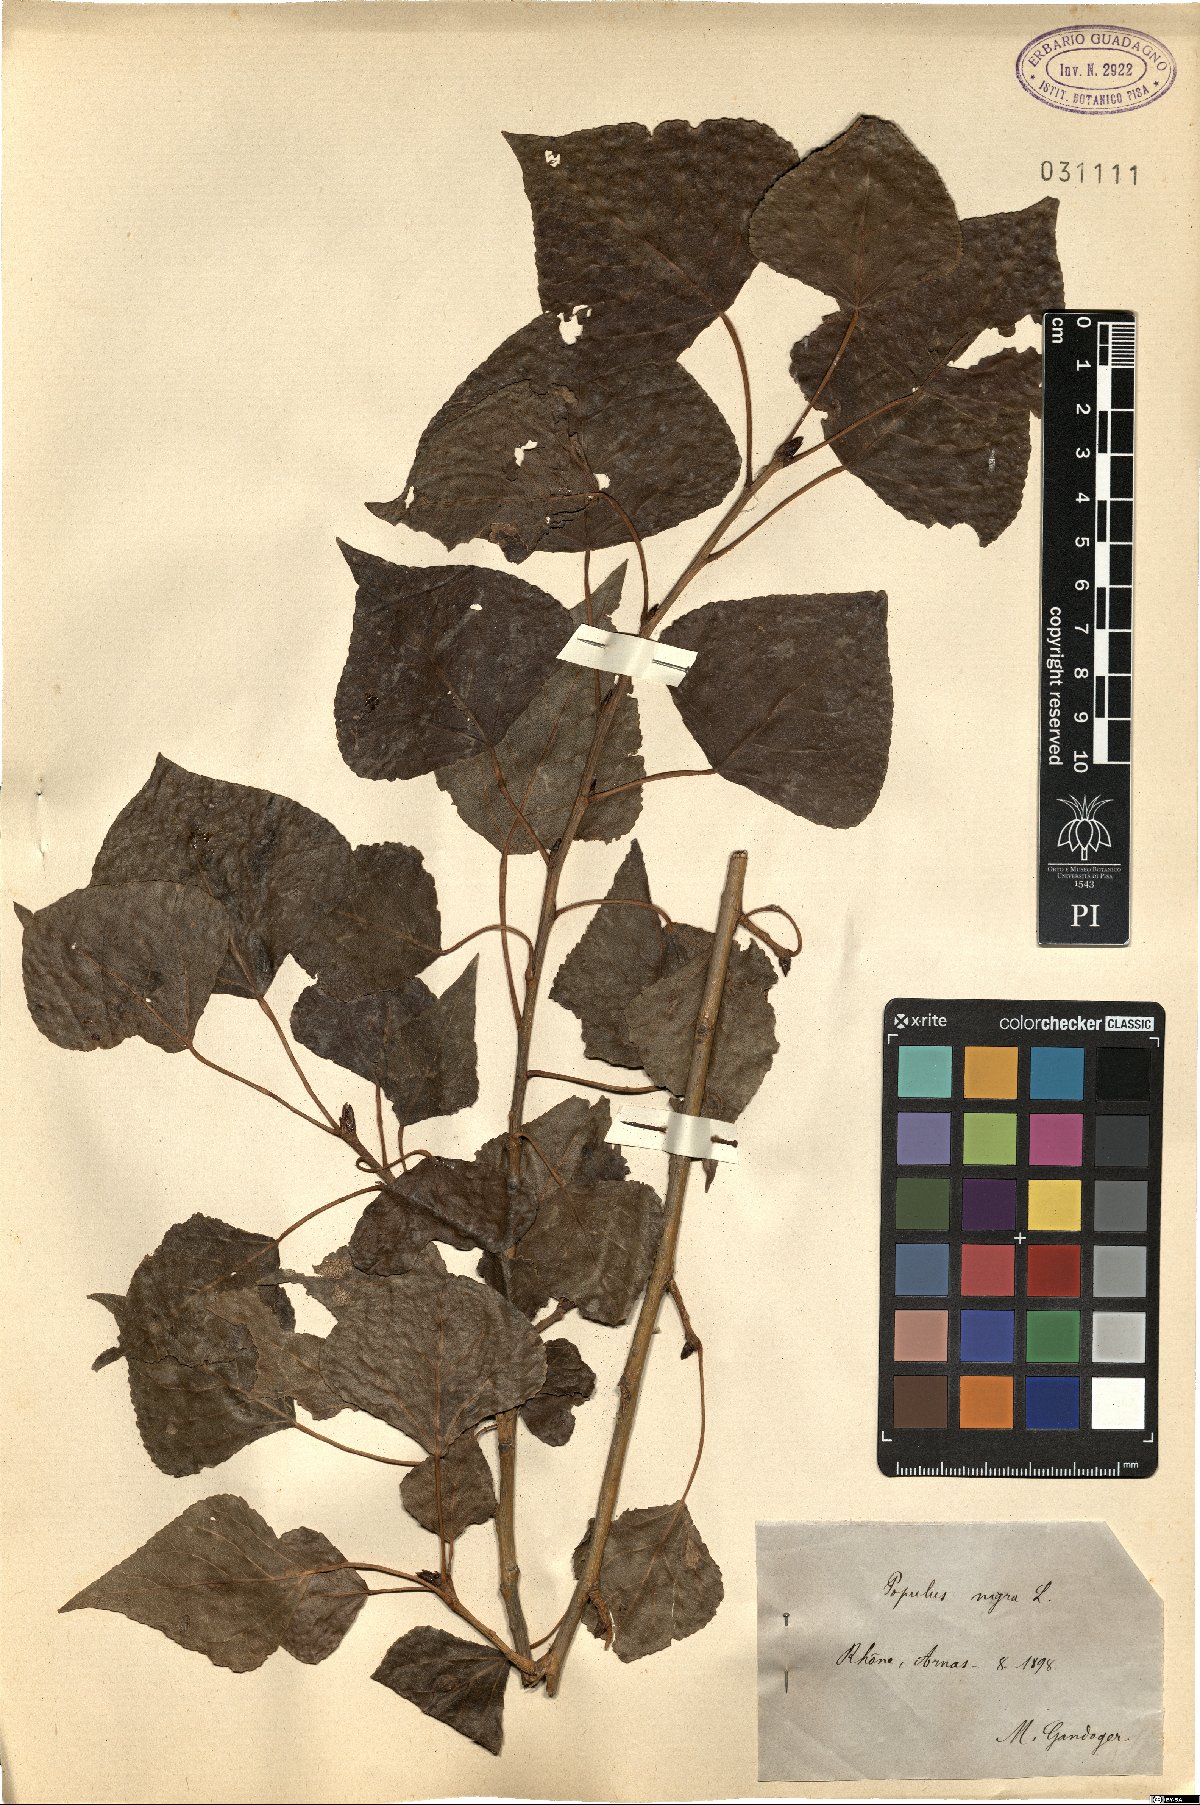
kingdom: Plantae
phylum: Tracheophyta
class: Magnoliopsida
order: Malpighiales
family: Salicaceae
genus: Populus
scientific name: Populus nigra
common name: Black poplar
